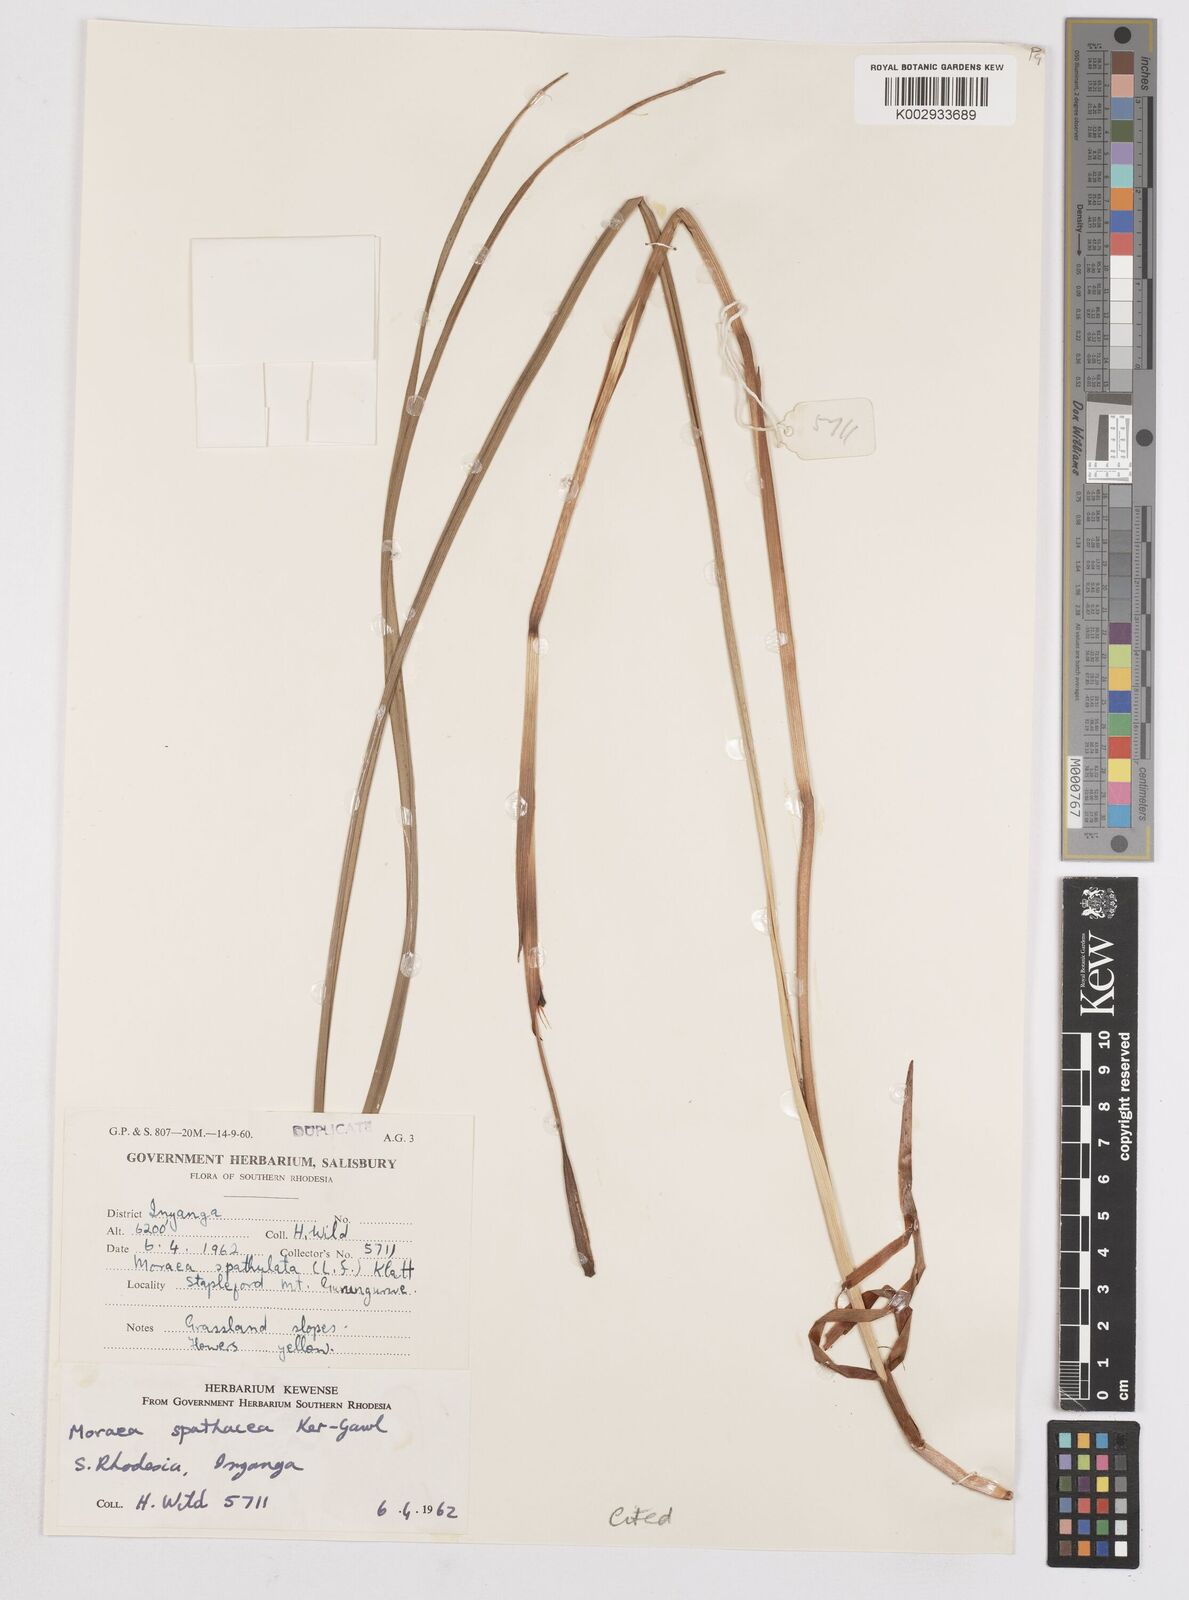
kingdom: Plantae
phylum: Tracheophyta
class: Liliopsida
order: Asparagales
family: Iridaceae
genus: Moraea
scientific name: Moraea spathulata
